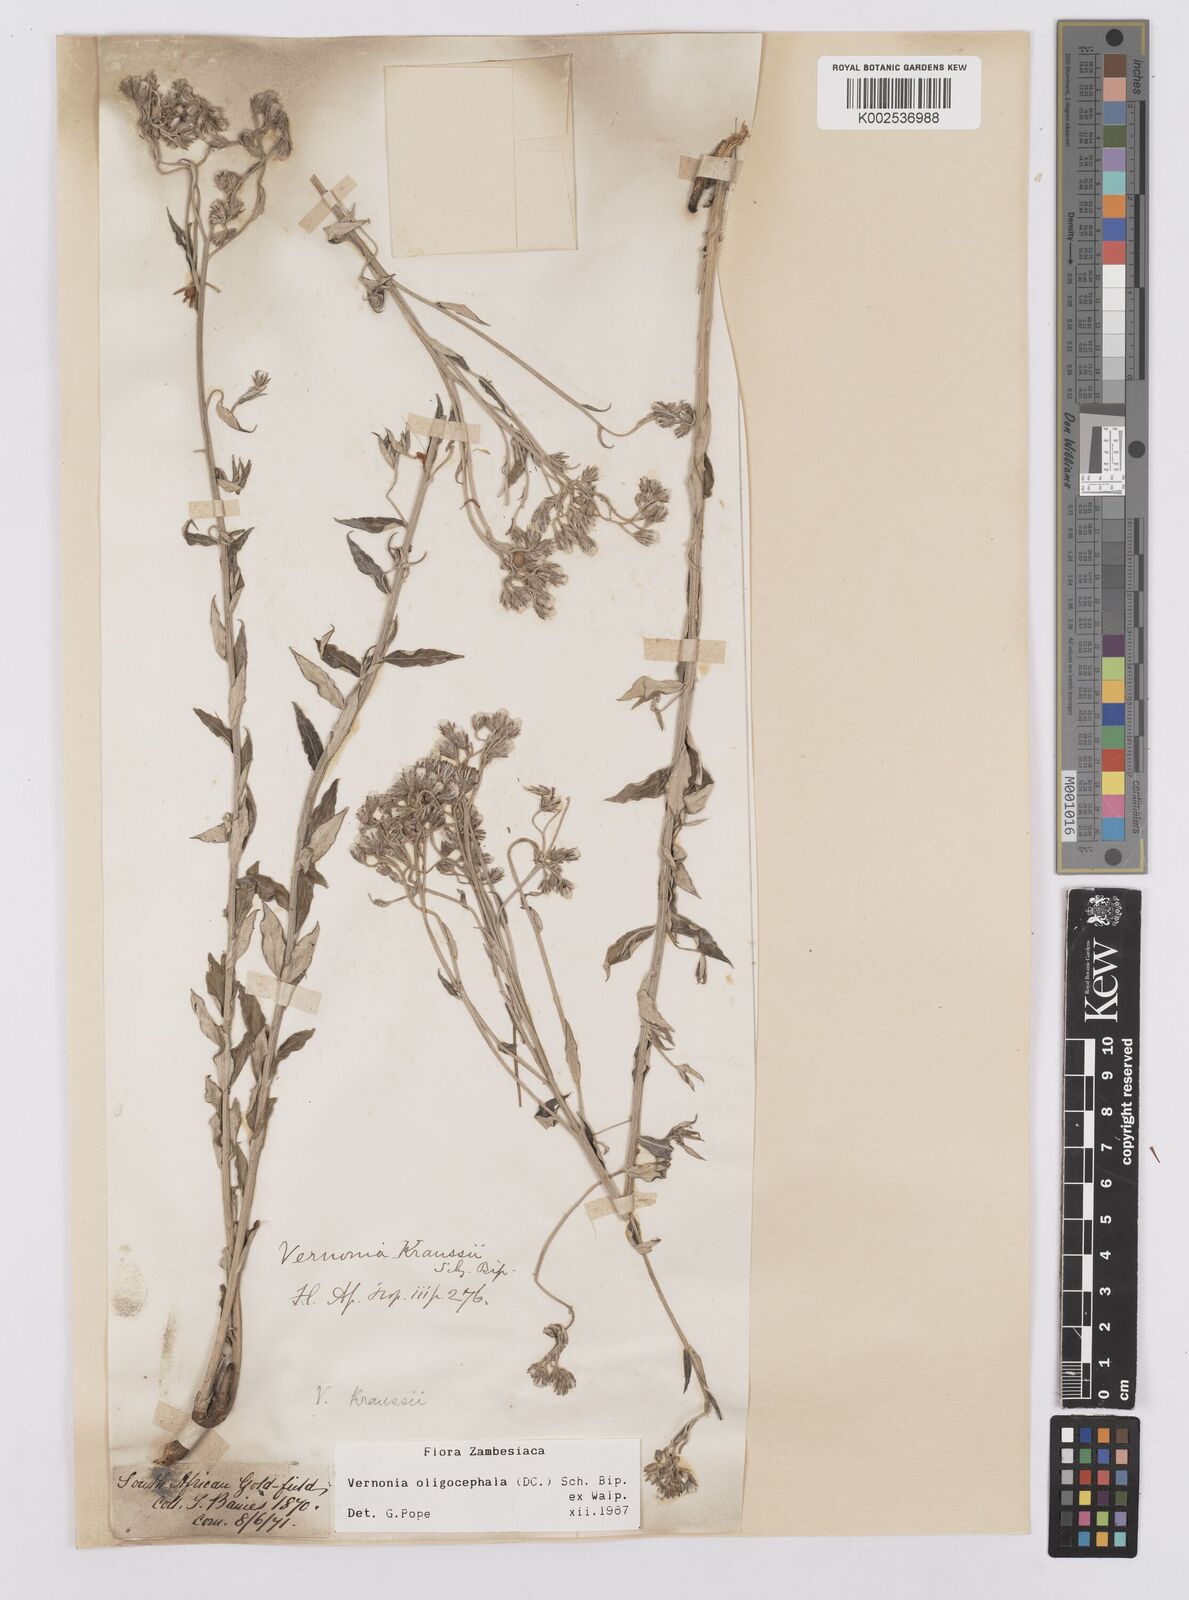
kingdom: Plantae
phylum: Tracheophyta
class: Magnoliopsida
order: Asterales
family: Asteraceae
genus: Hilliardiella
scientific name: Hilliardiella oligocephala
